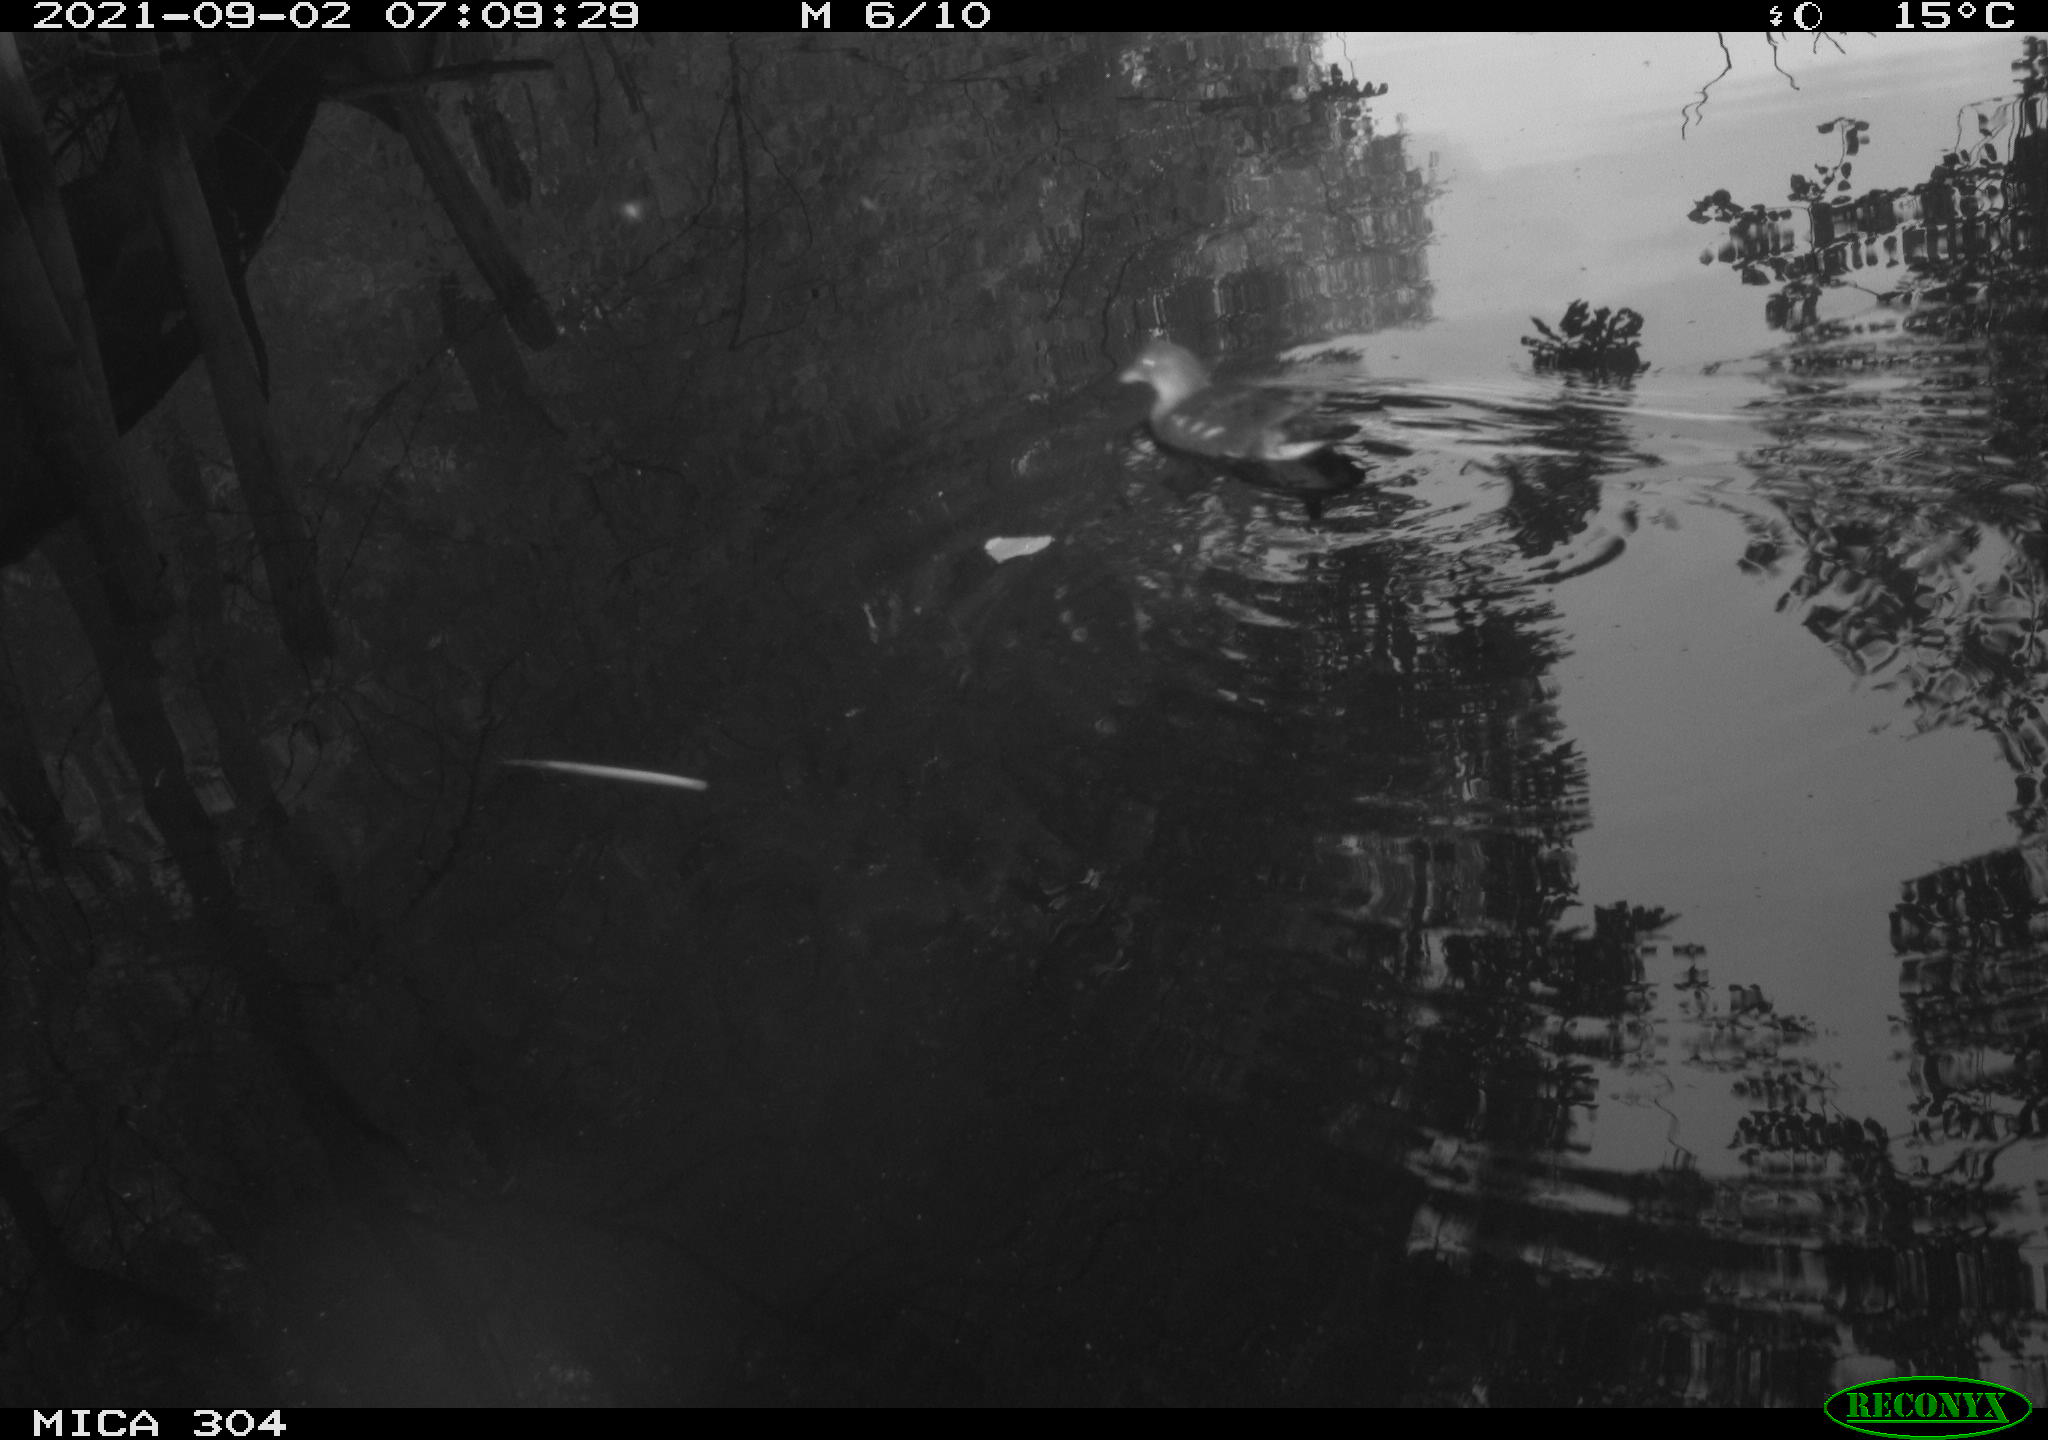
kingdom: Animalia
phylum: Chordata
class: Aves
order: Gruiformes
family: Rallidae
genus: Gallinula
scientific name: Gallinula chloropus
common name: Common moorhen
